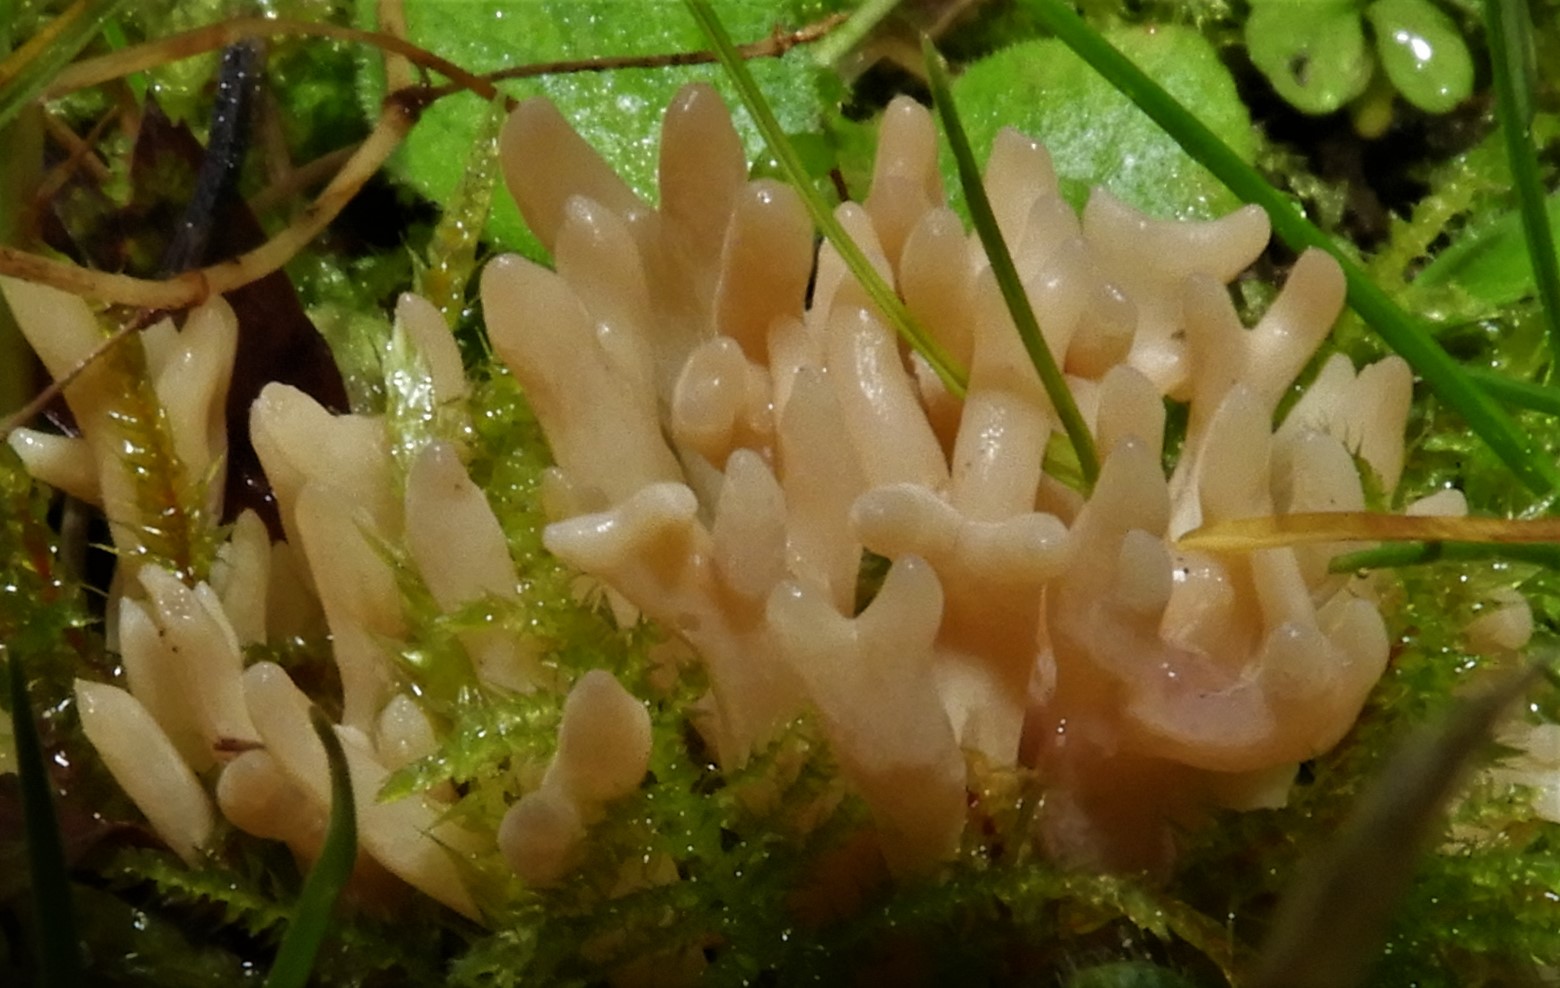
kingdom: Fungi
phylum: Basidiomycota
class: Agaricomycetes
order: Agaricales
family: Clavariaceae
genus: Clavulinopsis
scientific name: Clavulinopsis umbrinella
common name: gulgrå køllesvamp
